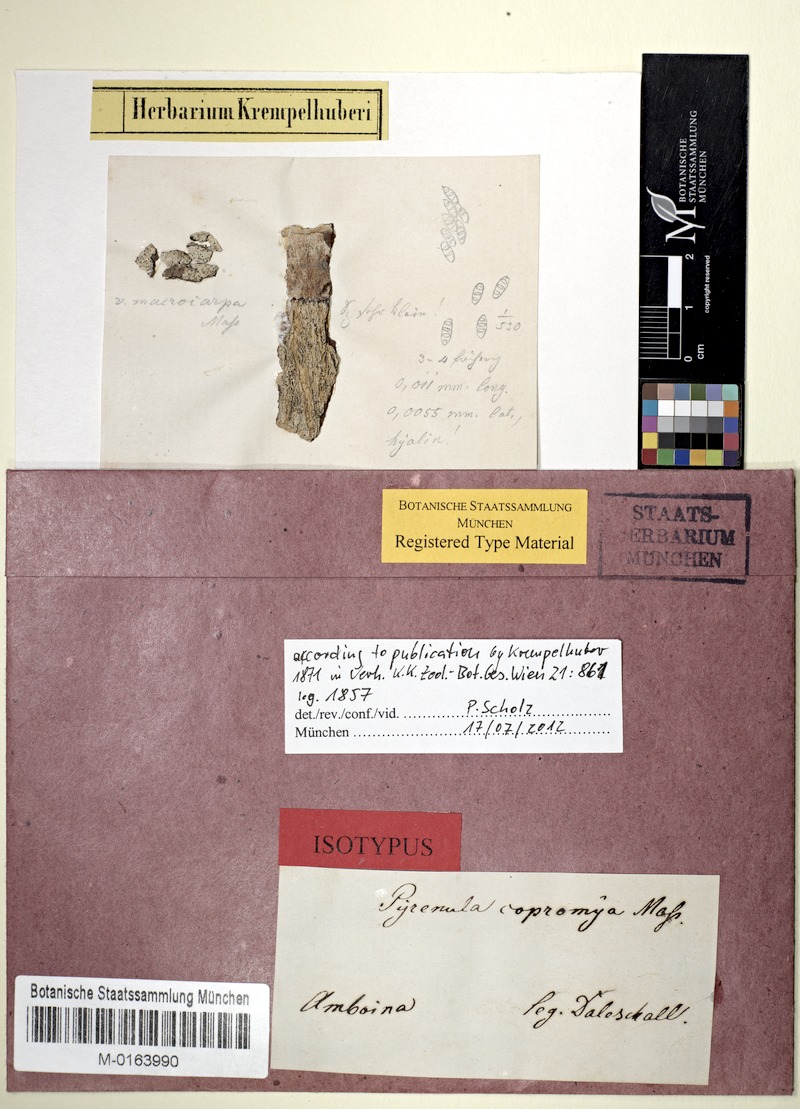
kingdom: Fungi
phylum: Ascomycota
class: Eurotiomycetes
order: Pyrenulales
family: Pyrenulaceae
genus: Pyrenula
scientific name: Pyrenula
